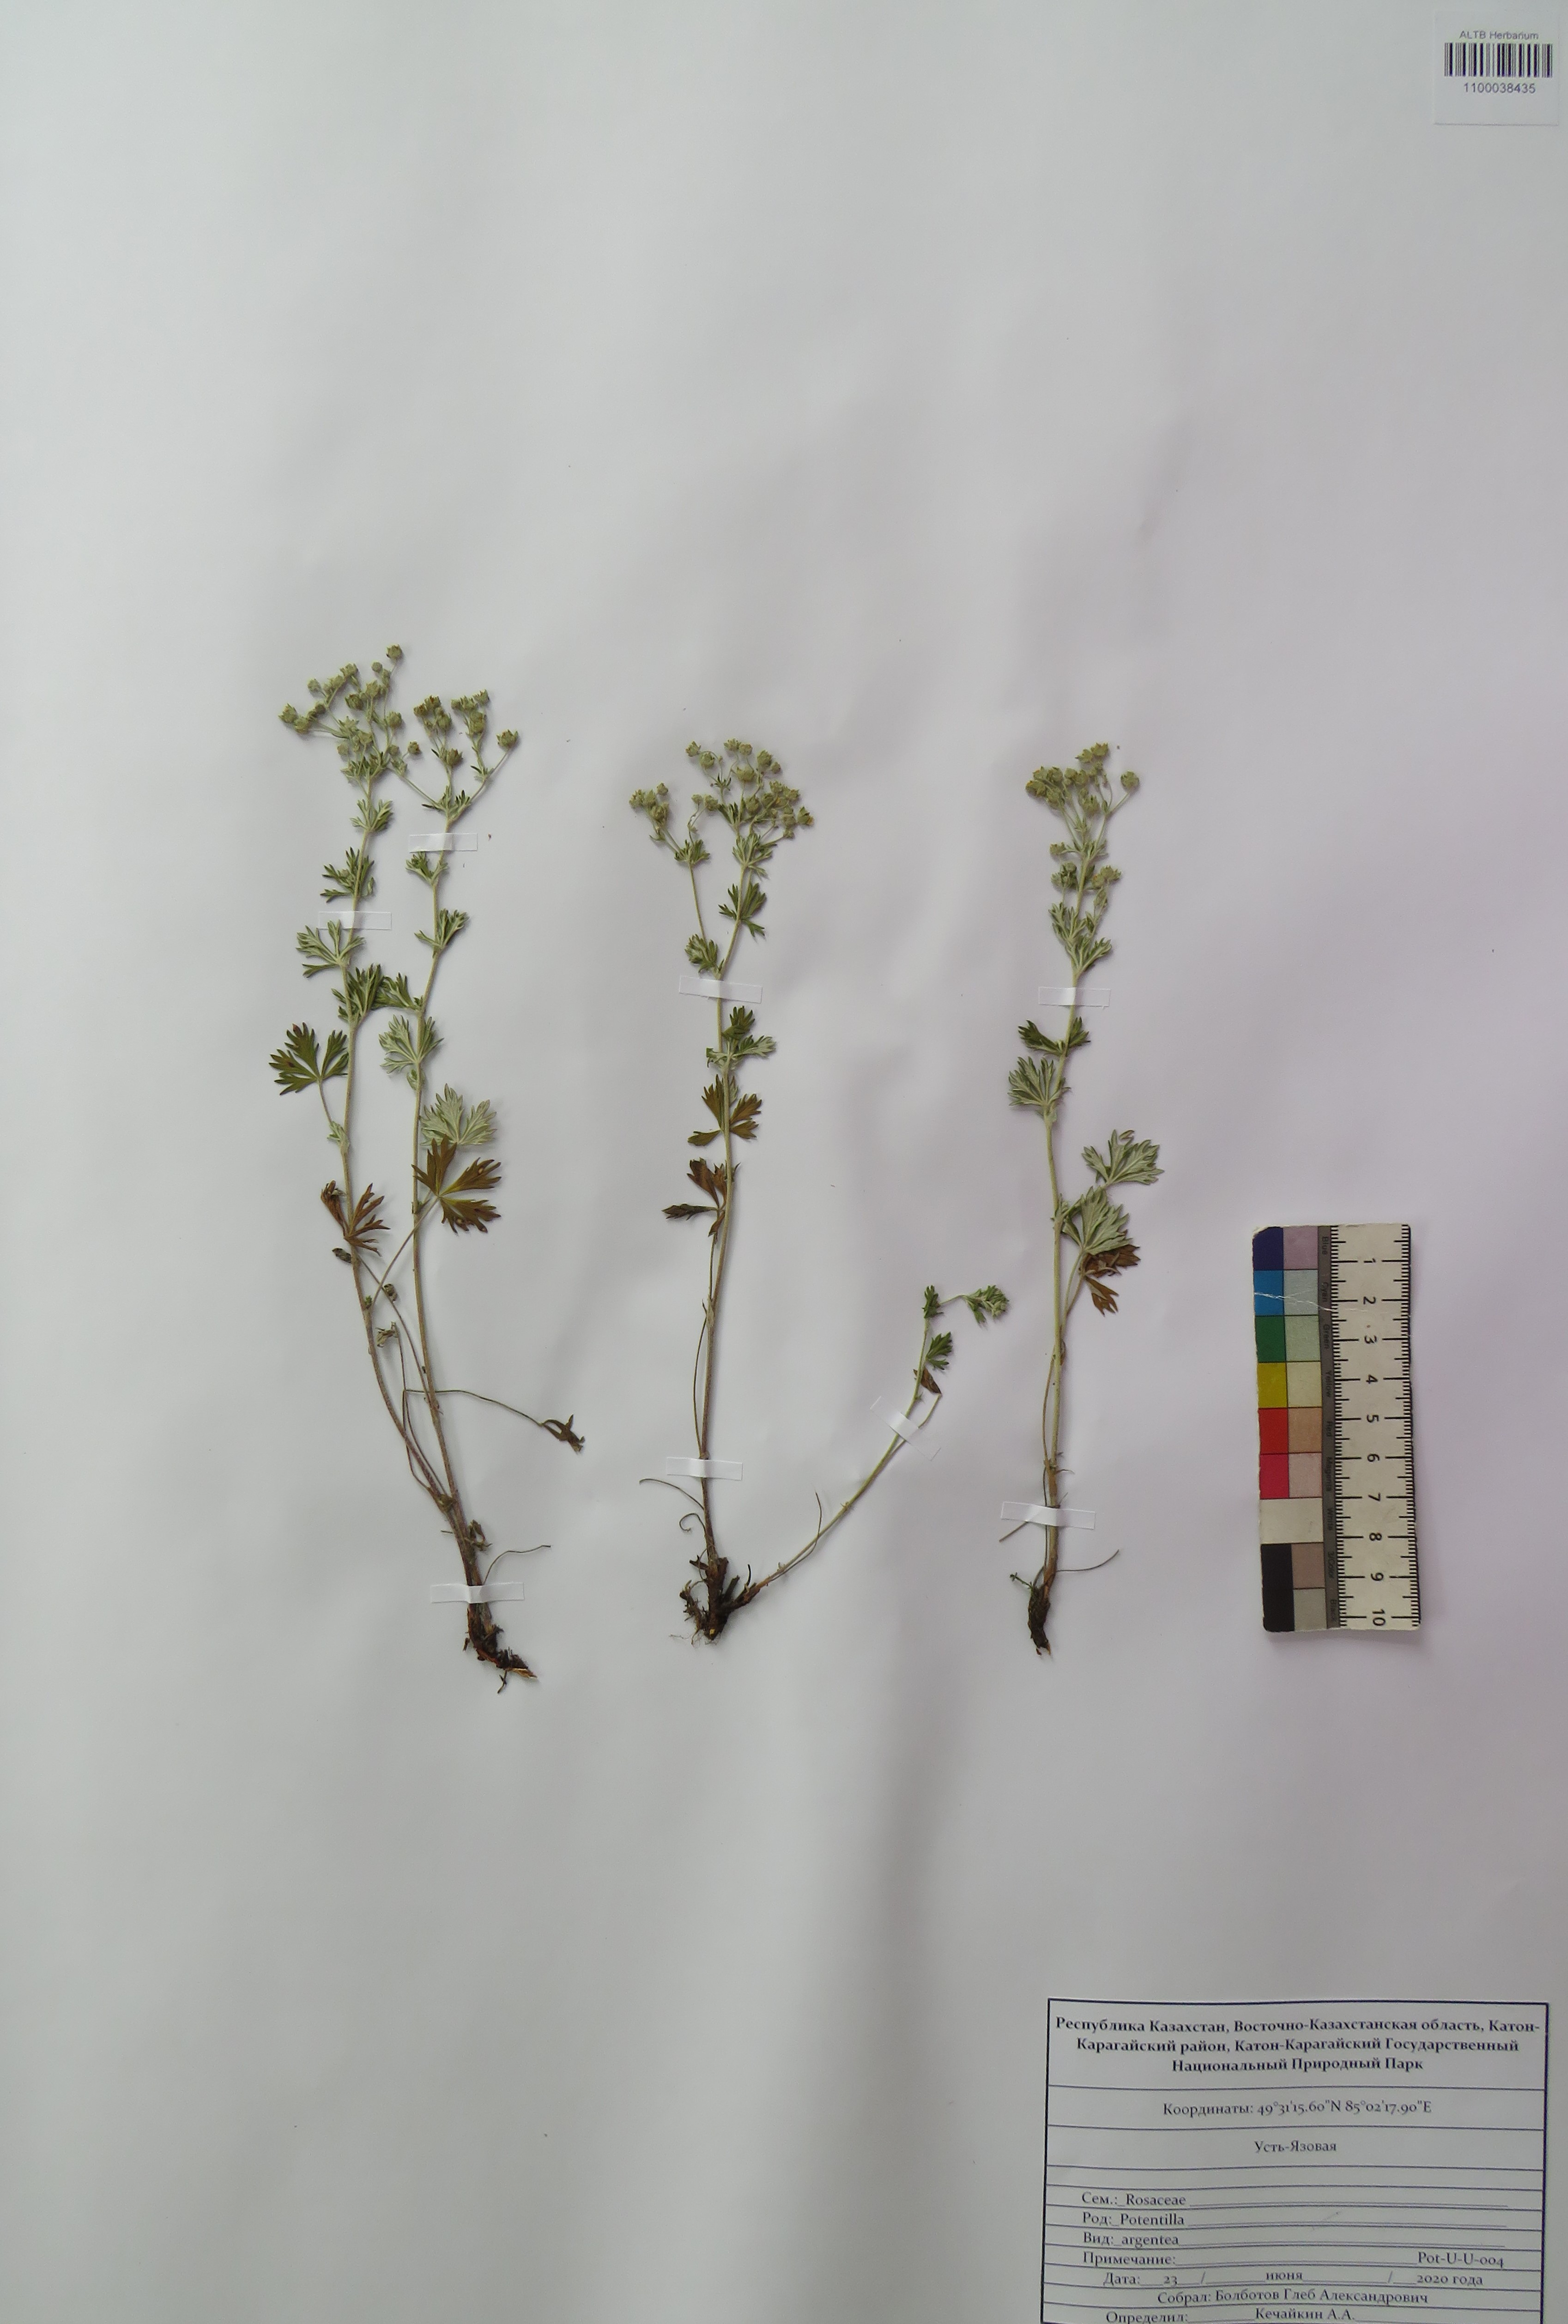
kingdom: Plantae
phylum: Tracheophyta
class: Magnoliopsida
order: Rosales
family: Rosaceae
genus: Potentilla
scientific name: Potentilla argentea
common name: Hoary cinquefoil
